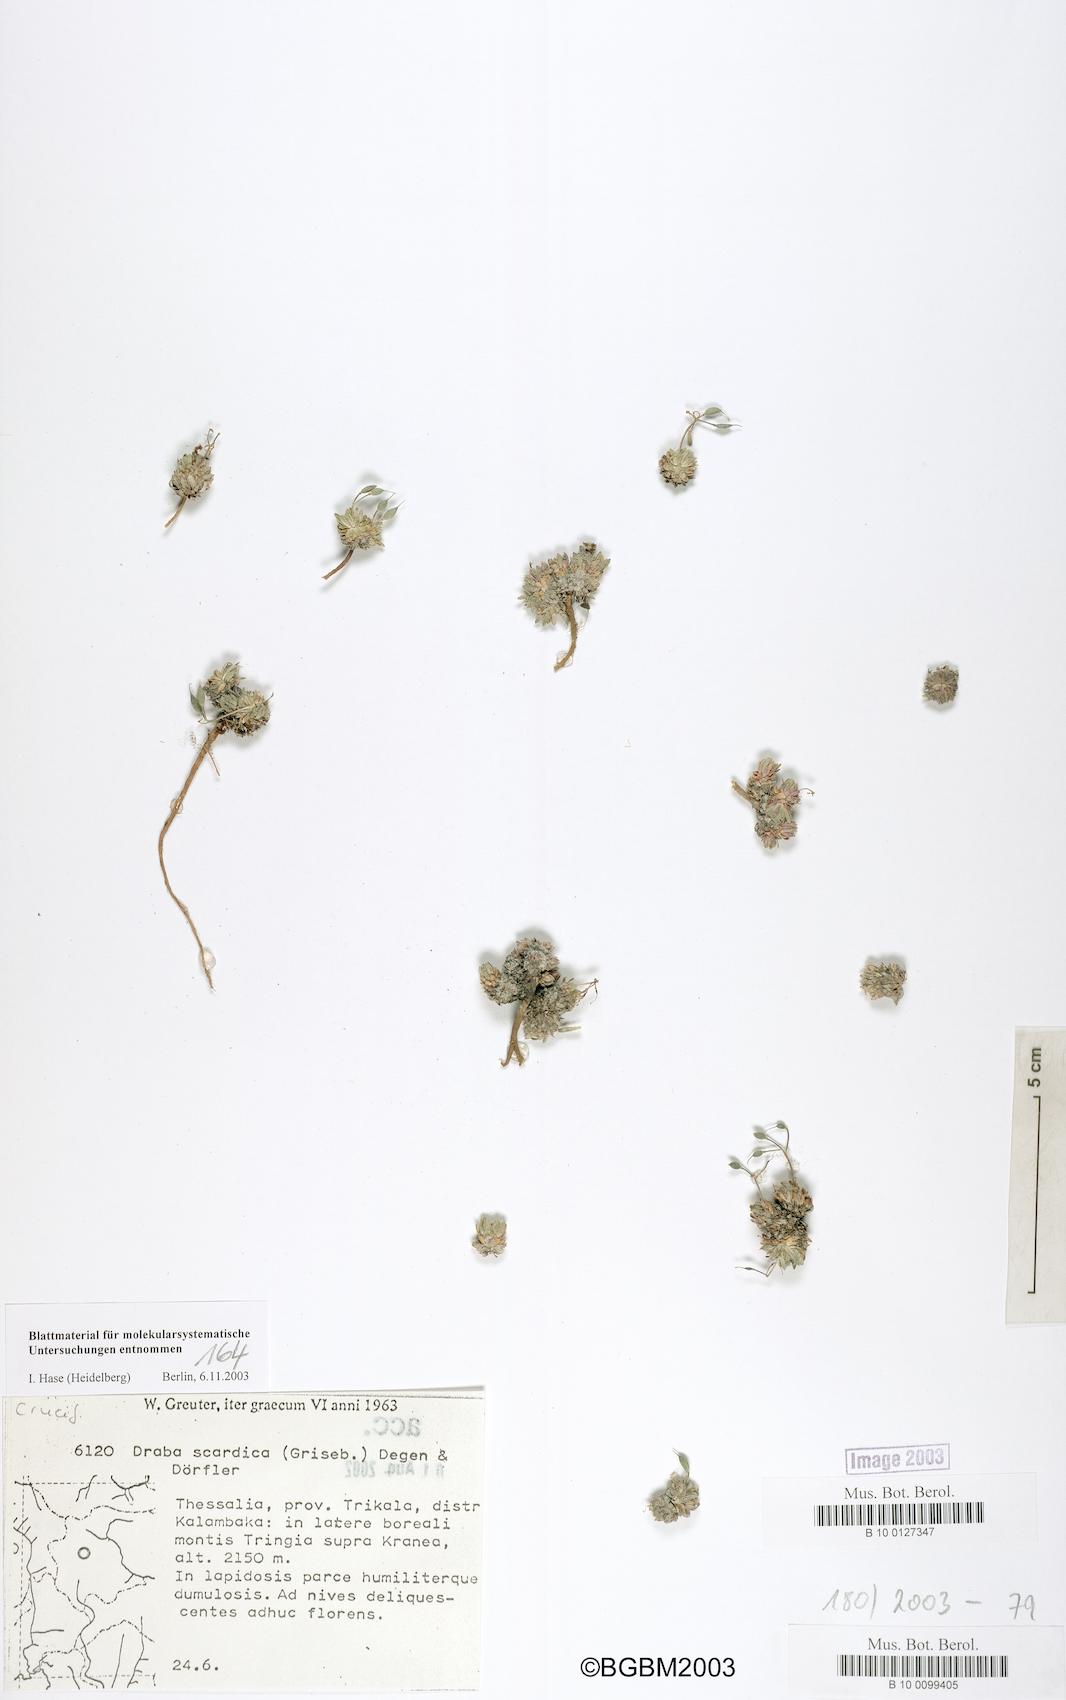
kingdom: Plantae
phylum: Tracheophyta
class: Magnoliopsida
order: Brassicales
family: Brassicaceae
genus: Draba
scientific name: Draba lasiocarpa
